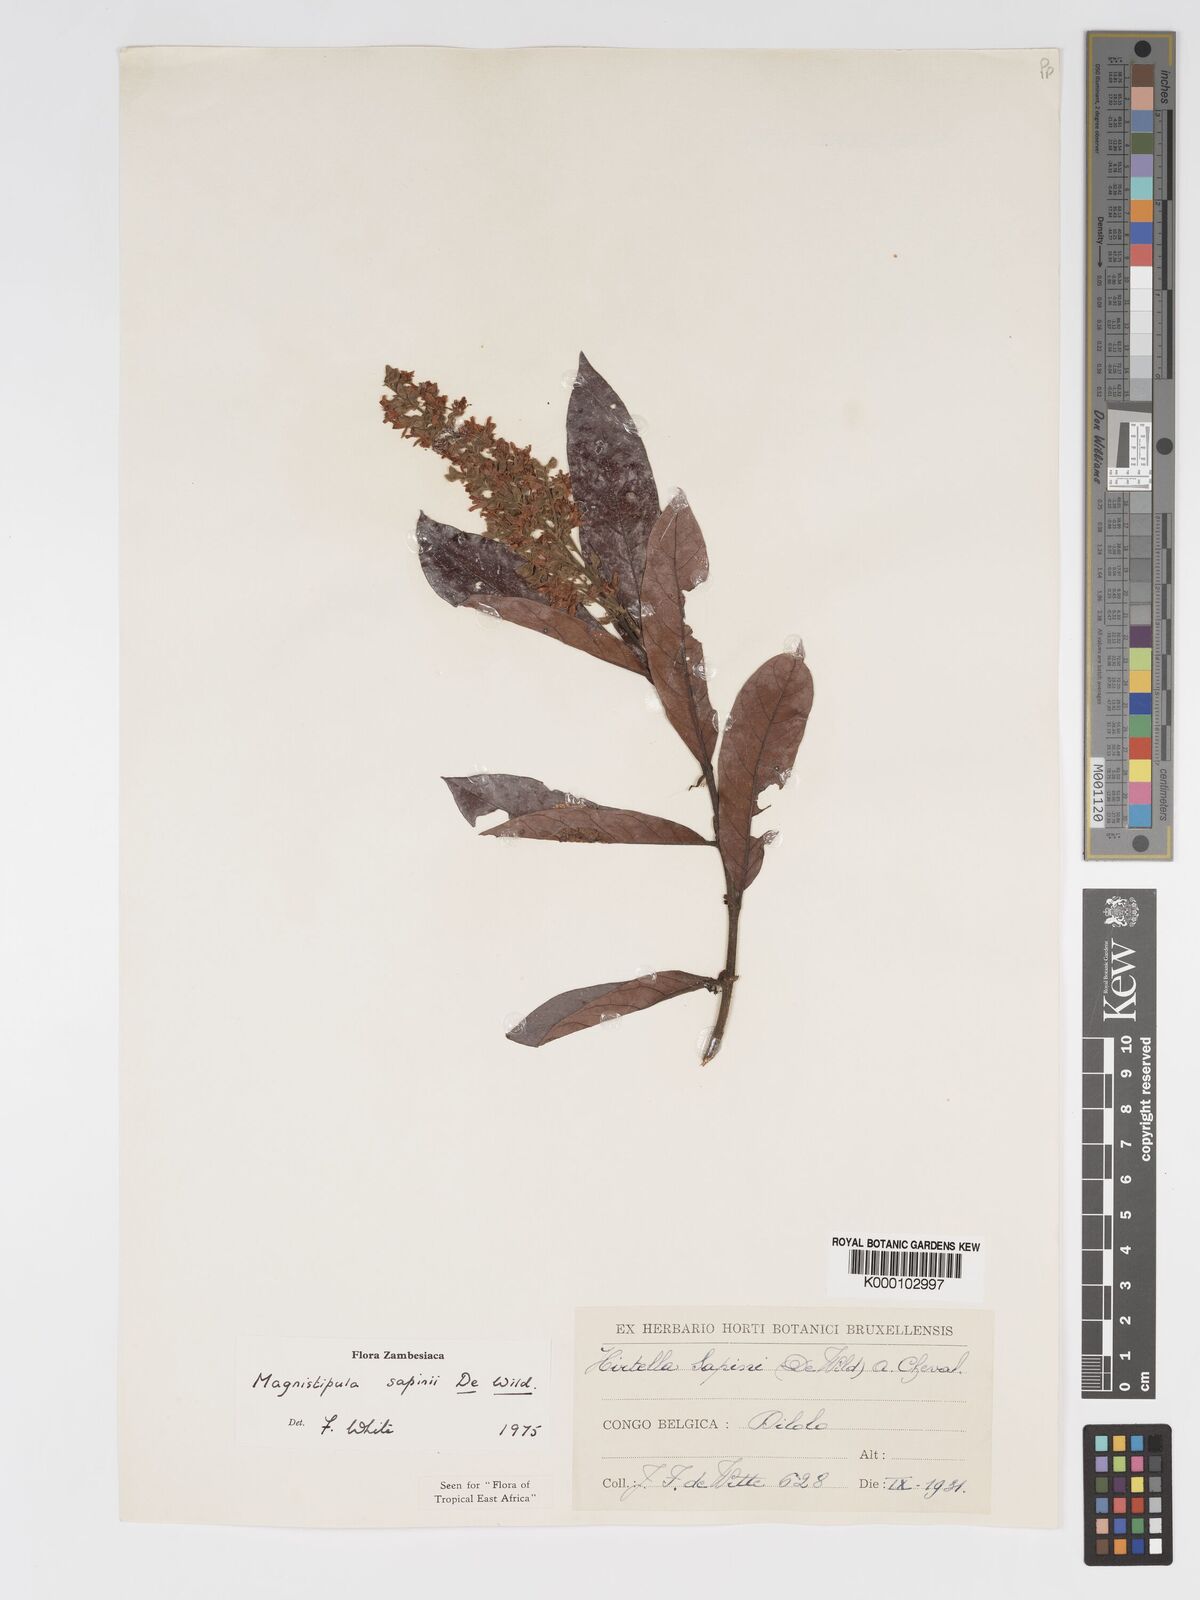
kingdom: Plantae
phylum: Tracheophyta
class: Magnoliopsida
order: Malpighiales
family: Chrysobalanaceae
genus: Magnistipula
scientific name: Magnistipula sapinii
